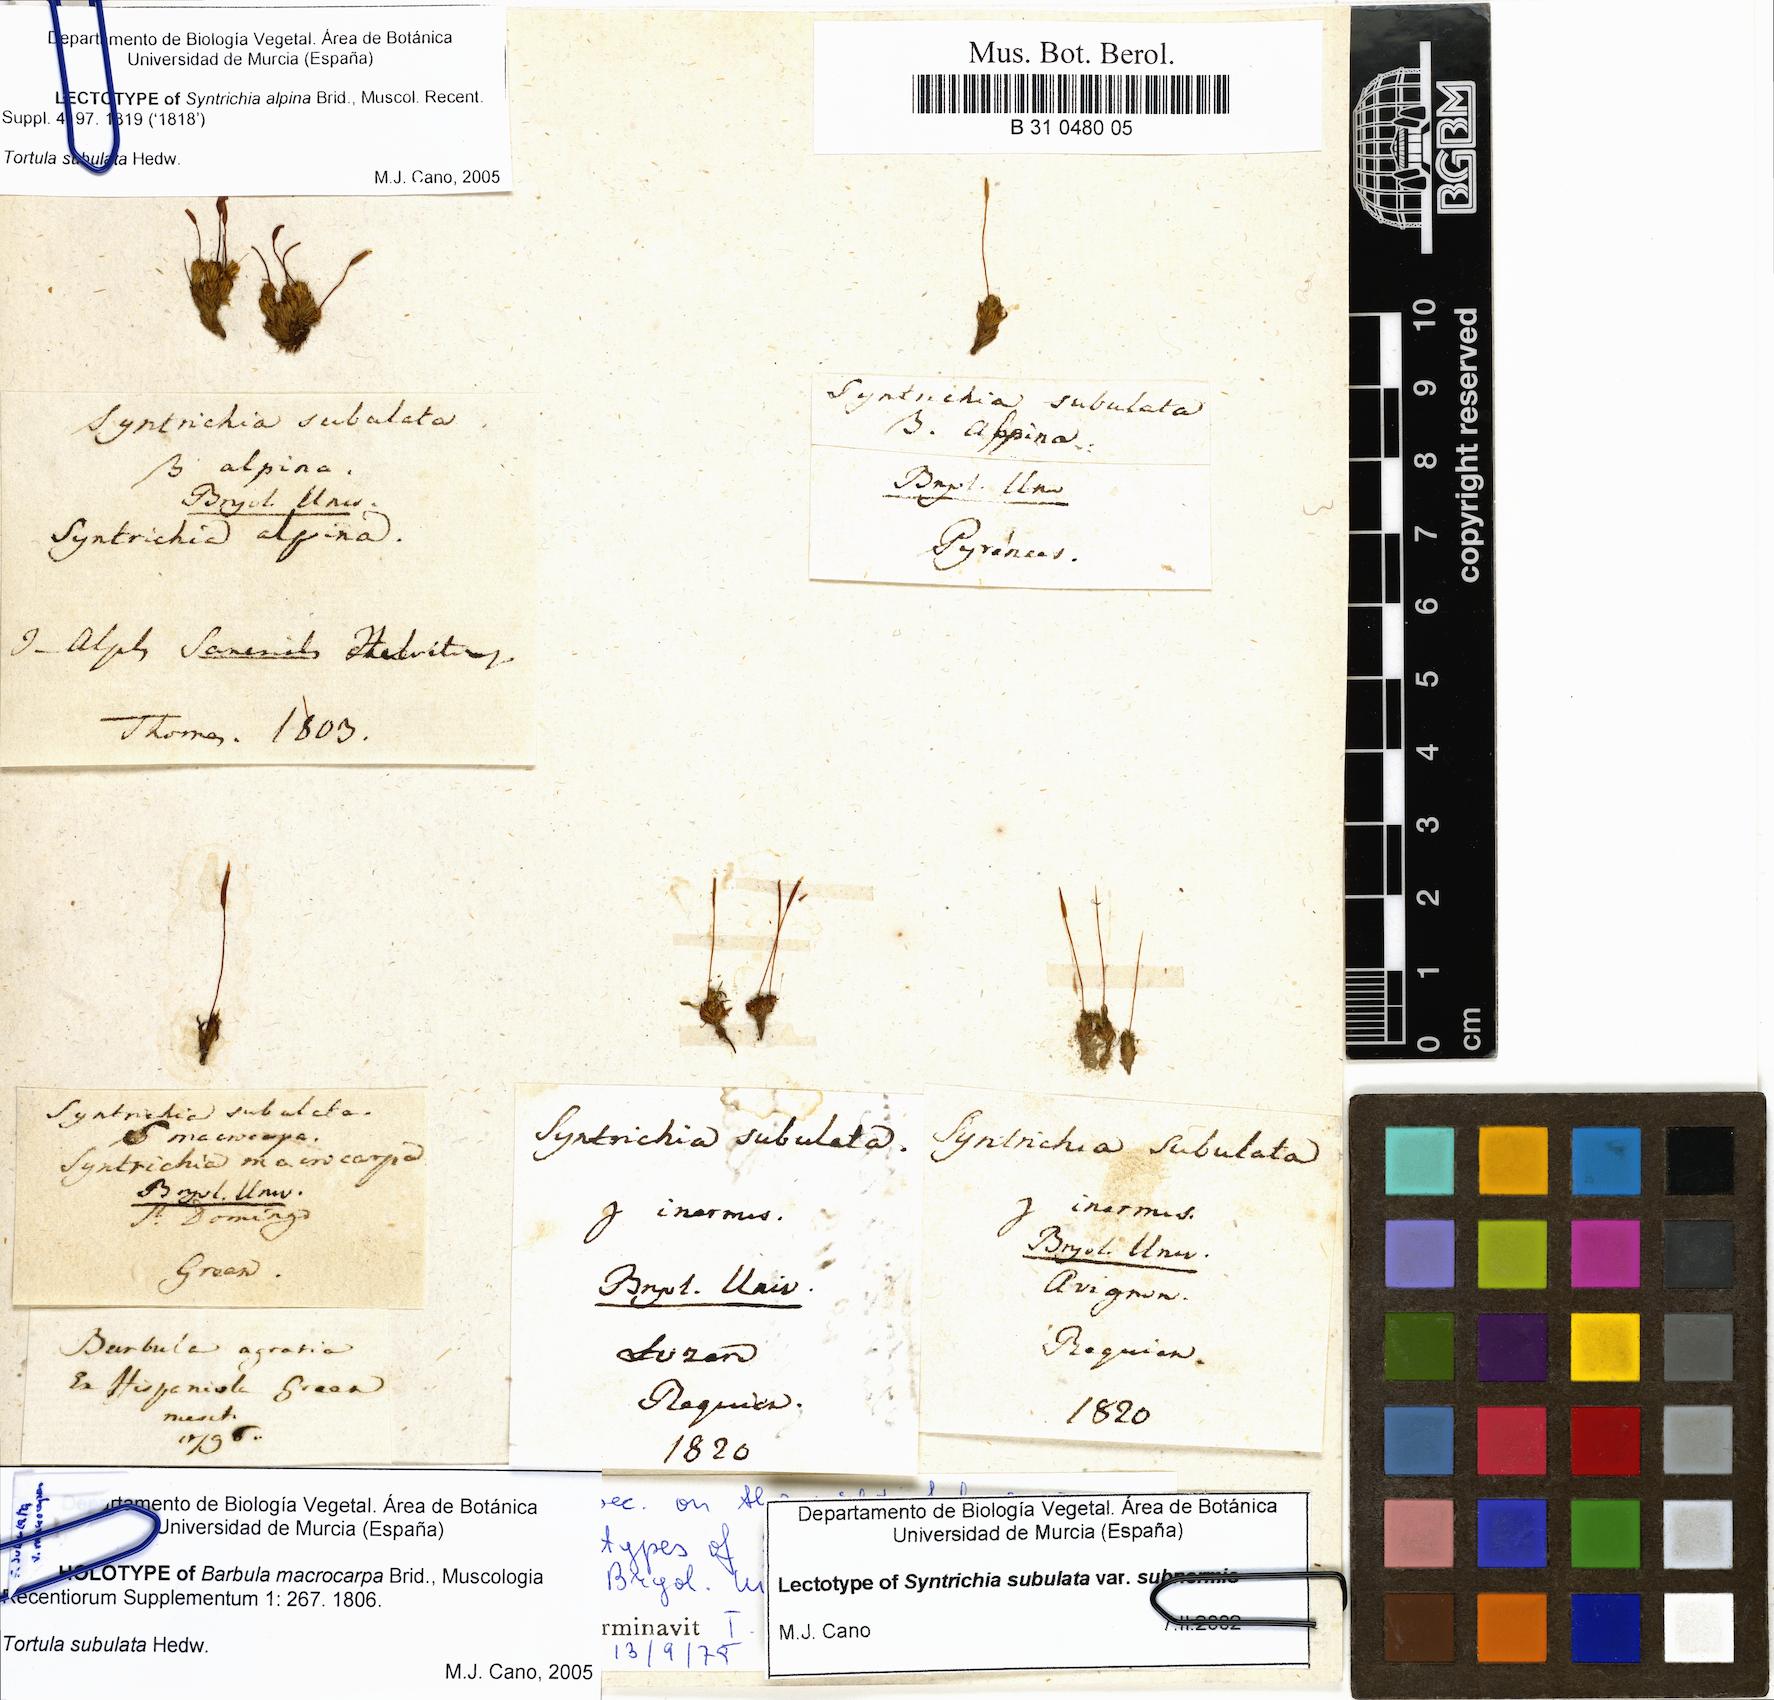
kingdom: Plantae
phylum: Bryophyta
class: Bryopsida
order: Pottiales
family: Pottiaceae
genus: Tortula
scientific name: Tortula subulata
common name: Upright screw-moss
